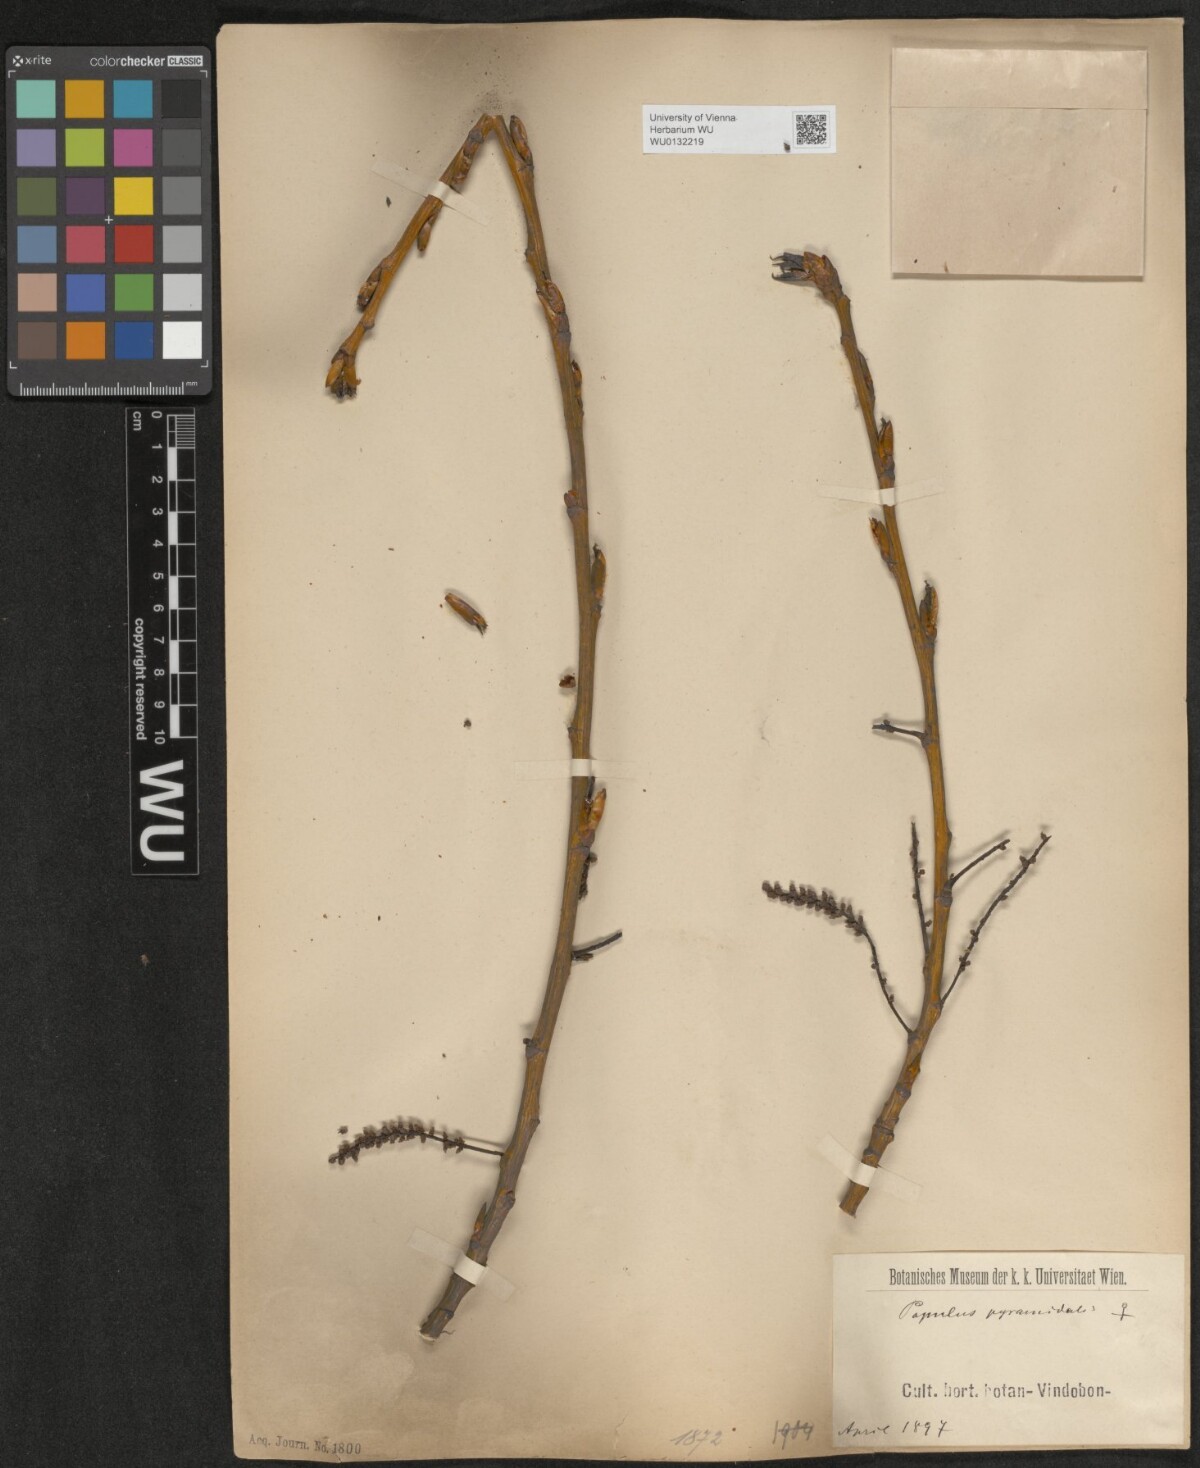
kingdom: Plantae
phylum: Tracheophyta
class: Magnoliopsida
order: Malpighiales
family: Salicaceae
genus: Populus
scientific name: Populus nigra
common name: Black poplar
